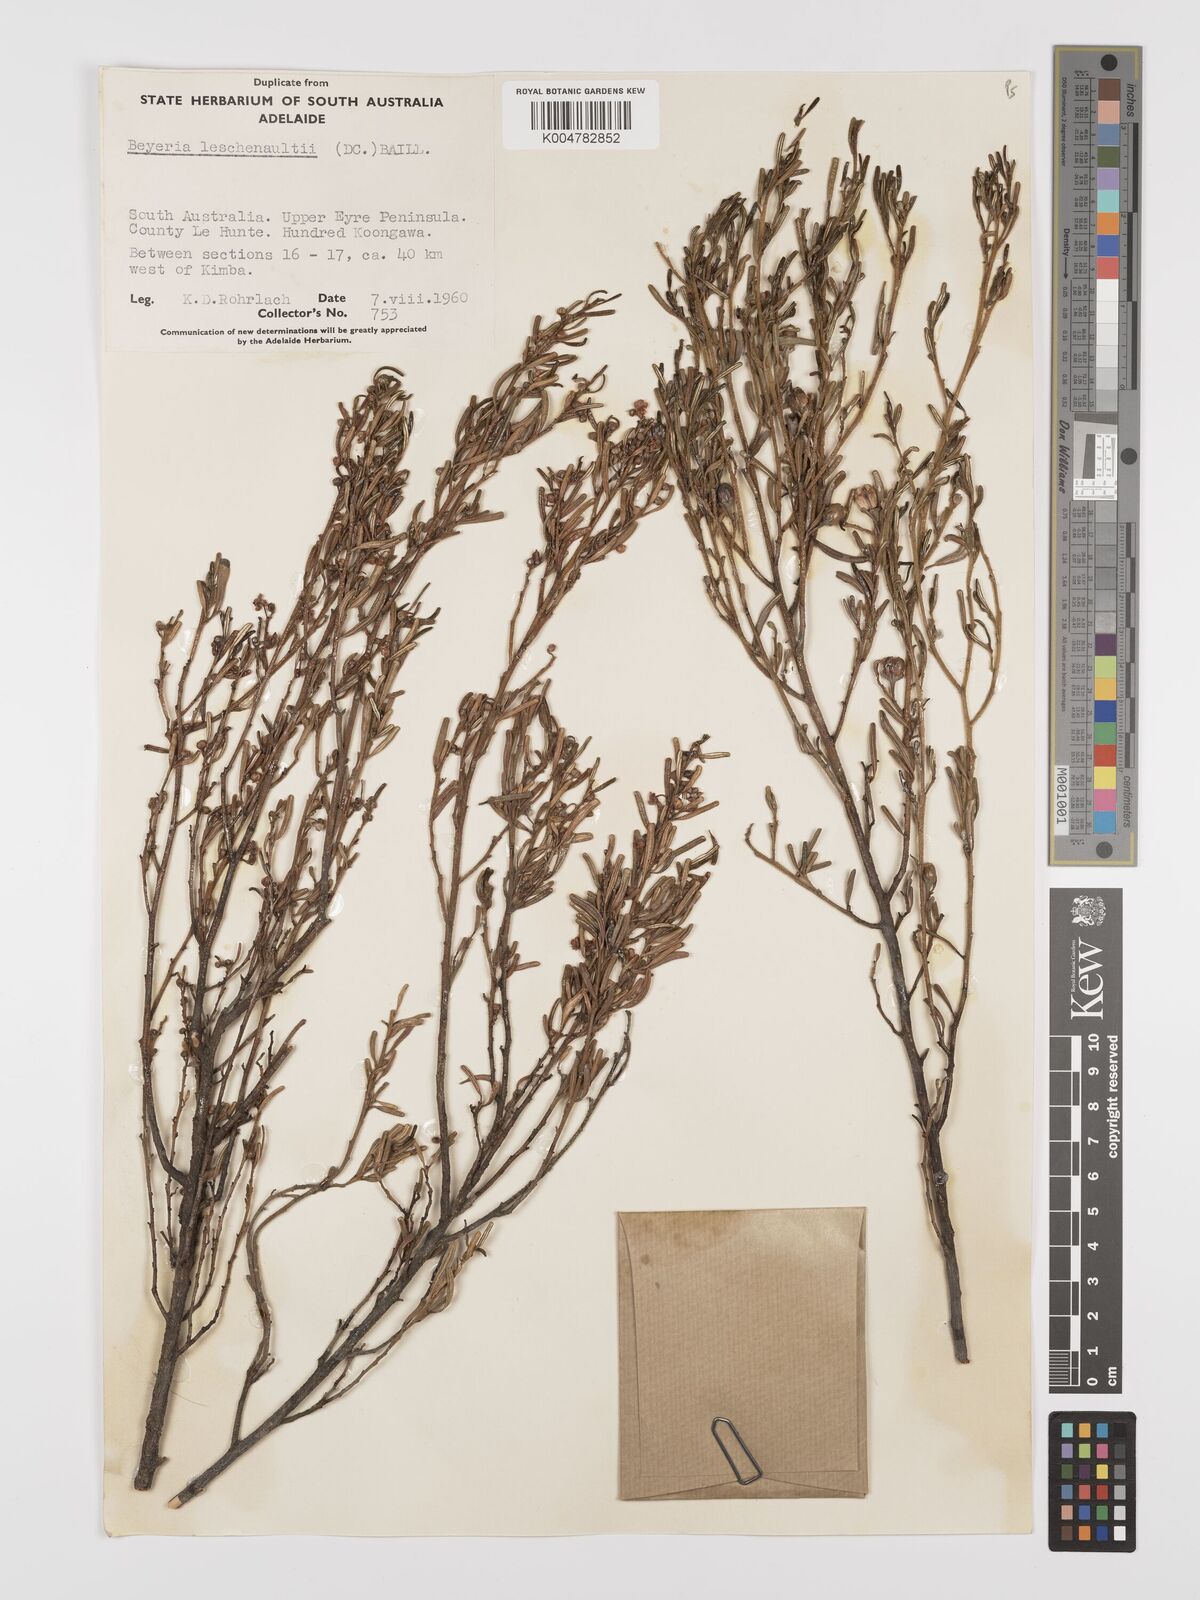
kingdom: Plantae
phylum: Tracheophyta
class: Magnoliopsida
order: Malpighiales
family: Euphorbiaceae
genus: Beyeria
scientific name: Beyeria lechenaultii
